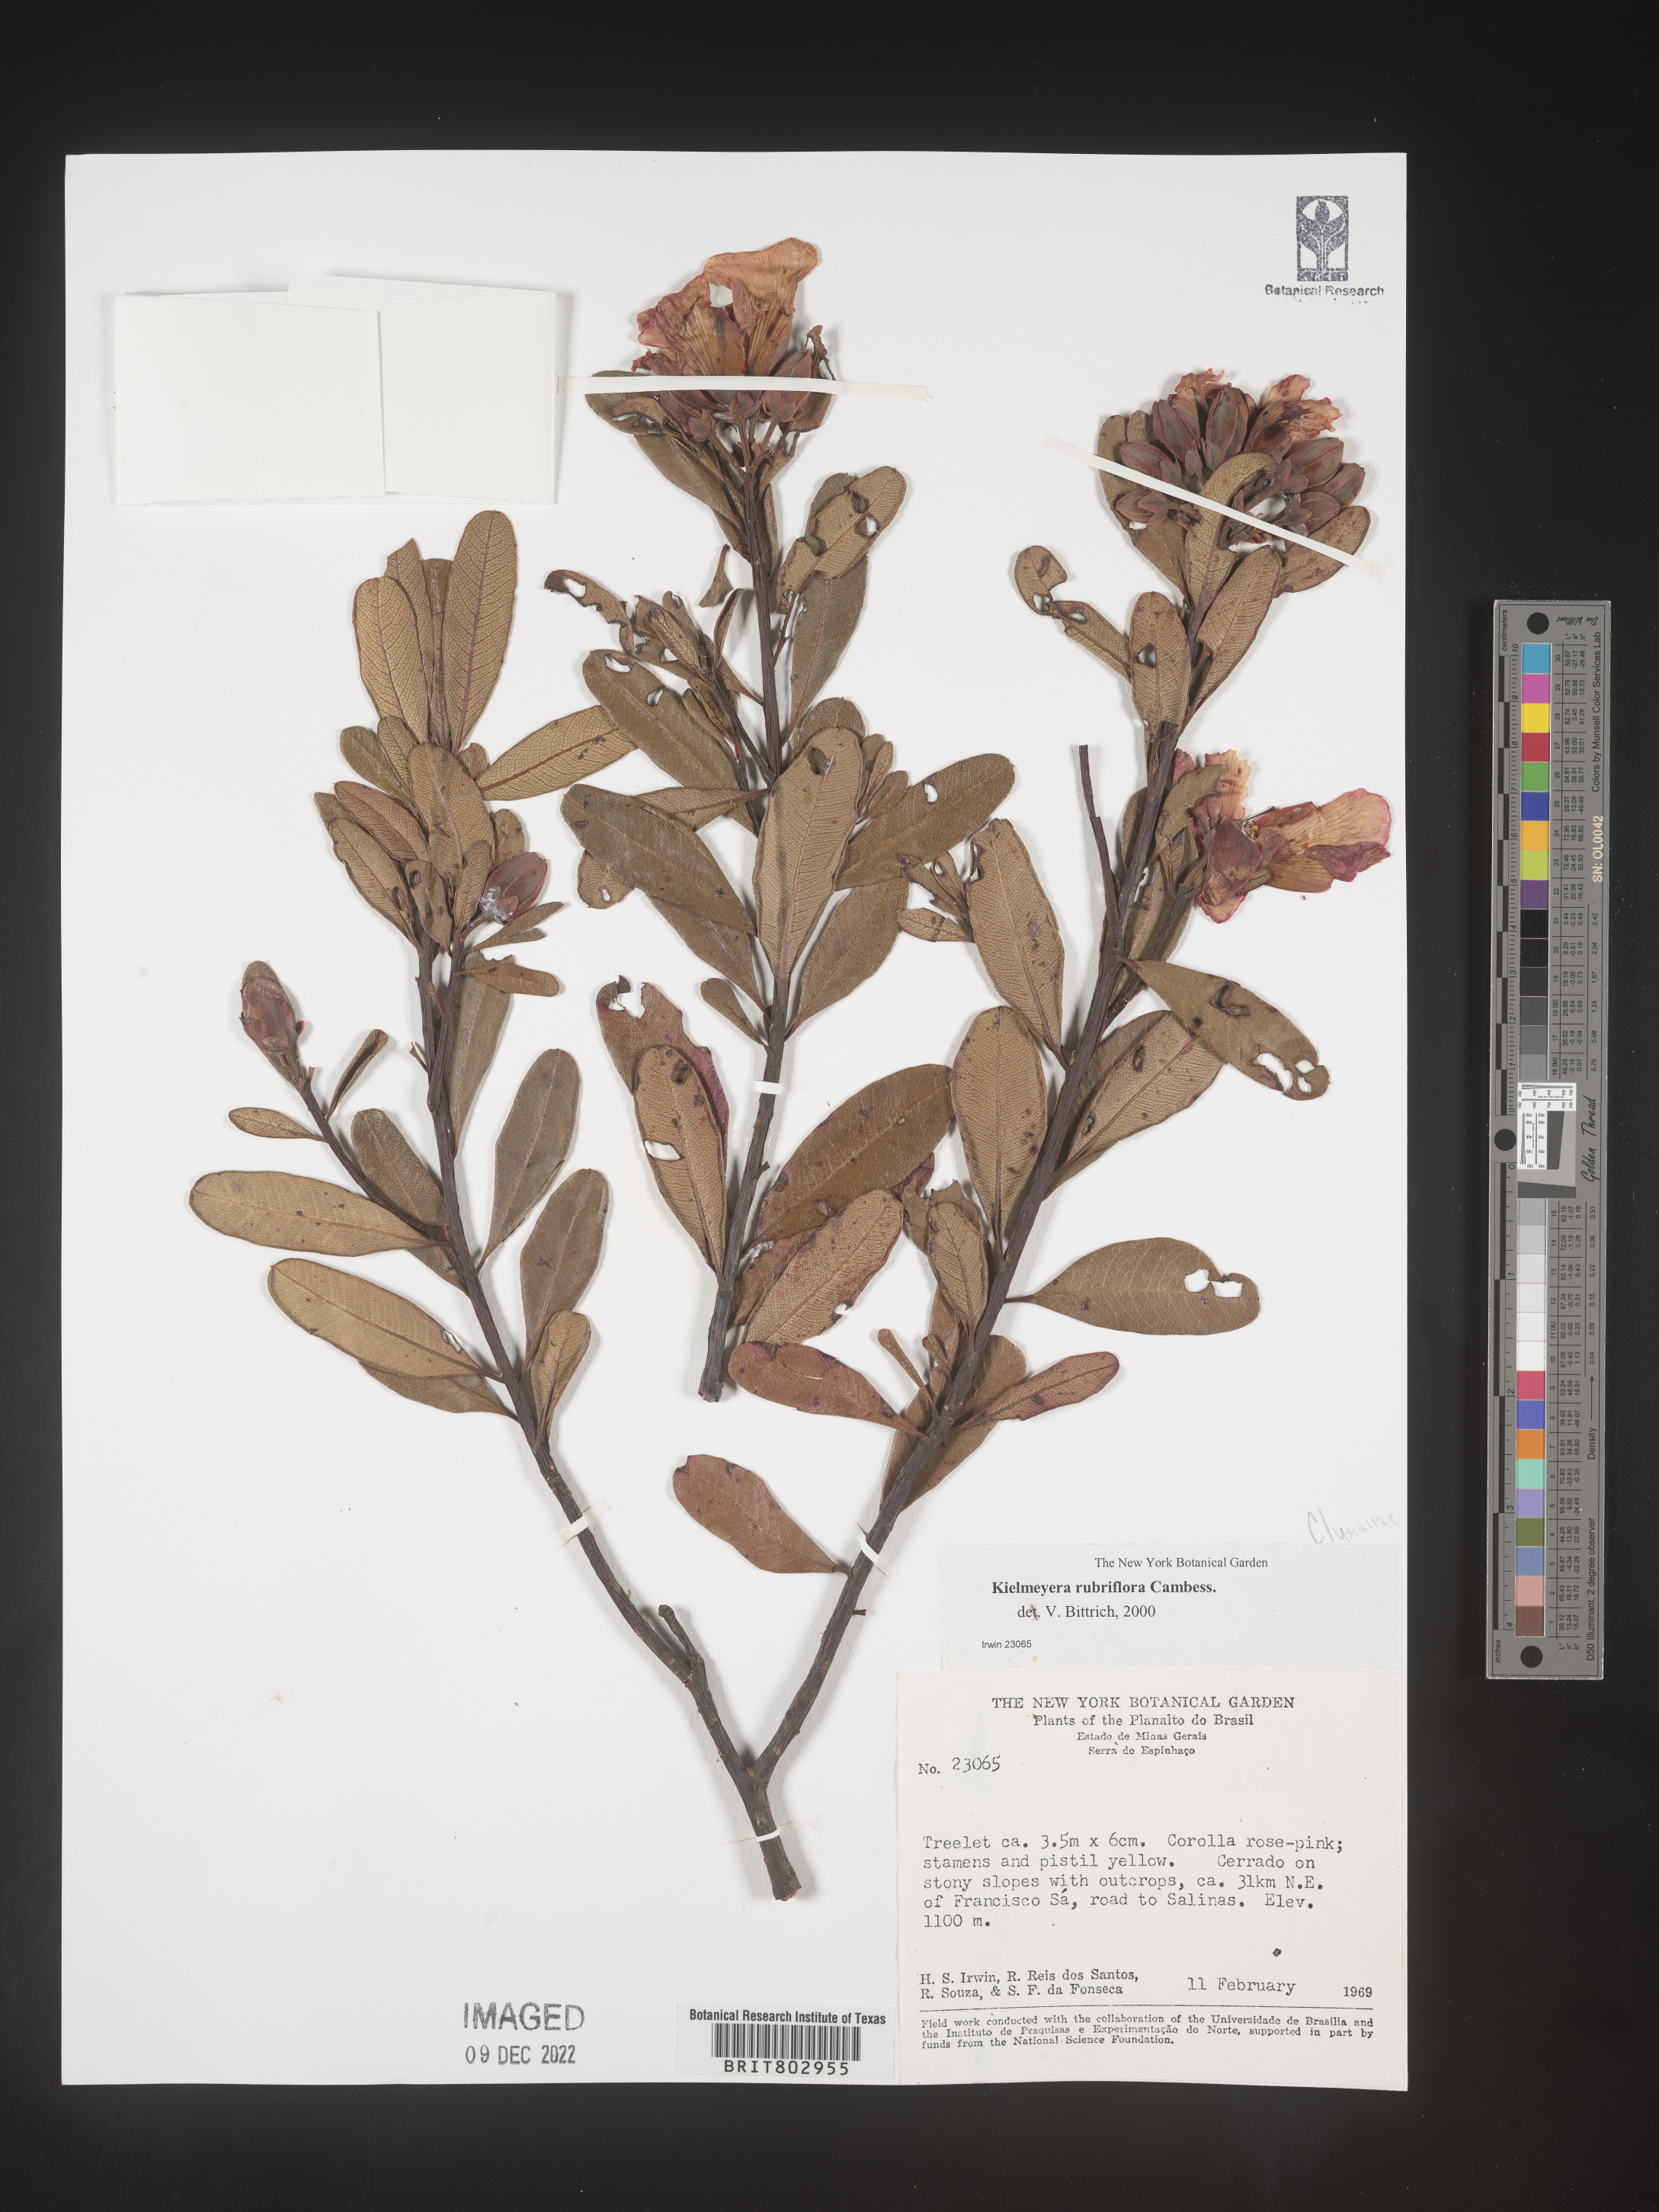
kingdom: Plantae
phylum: Tracheophyta
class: Magnoliopsida
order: Malpighiales
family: Calophyllaceae
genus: Kielmeyera
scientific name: Kielmeyera
